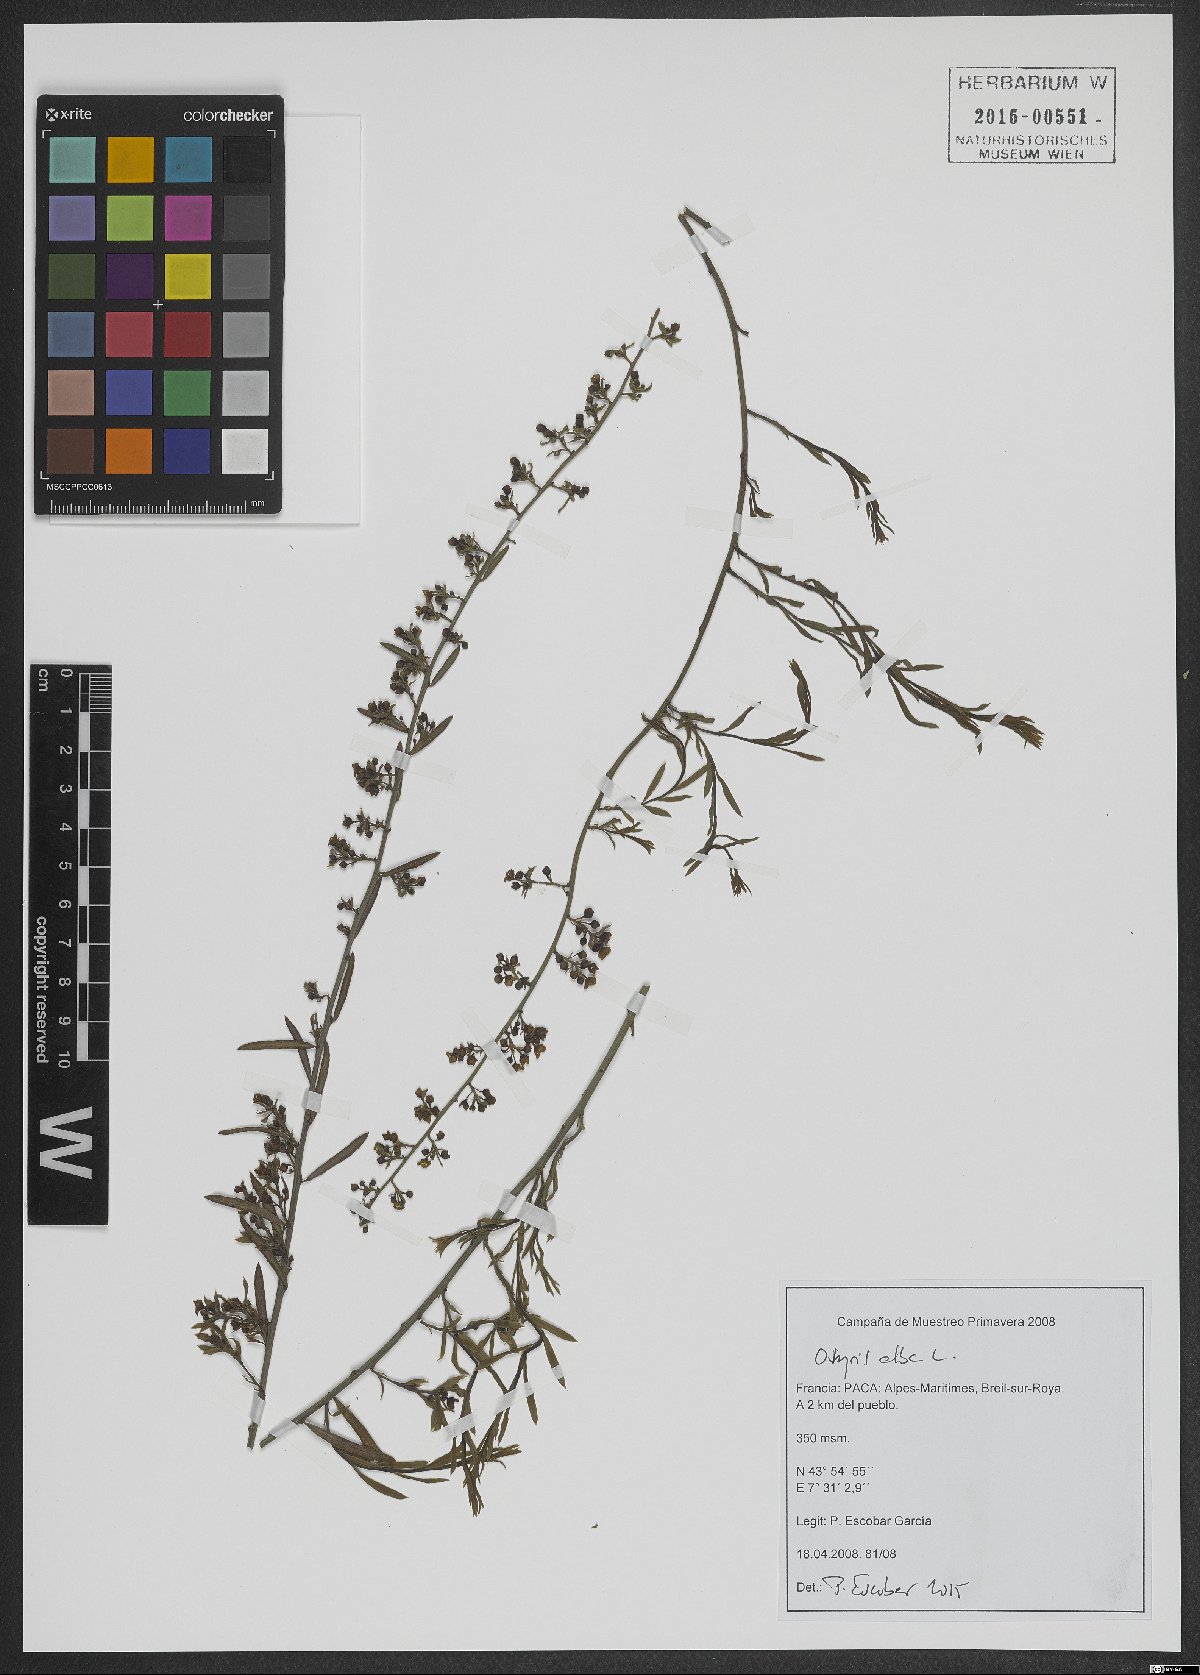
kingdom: Plantae
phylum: Tracheophyta
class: Magnoliopsida
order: Santalales
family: Santalaceae
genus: Osyris
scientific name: Osyris alba
